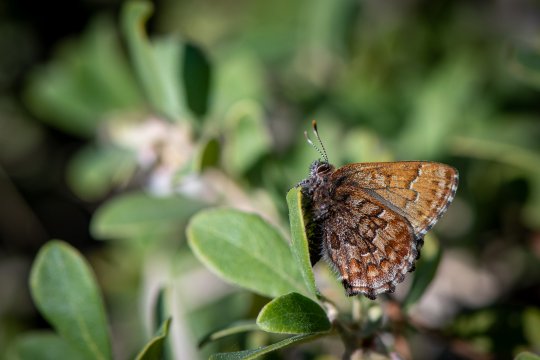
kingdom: Animalia
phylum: Arthropoda
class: Insecta
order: Lepidoptera
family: Lycaenidae
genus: Incisalia
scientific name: Incisalia niphon
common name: Eastern Pine Elfin
